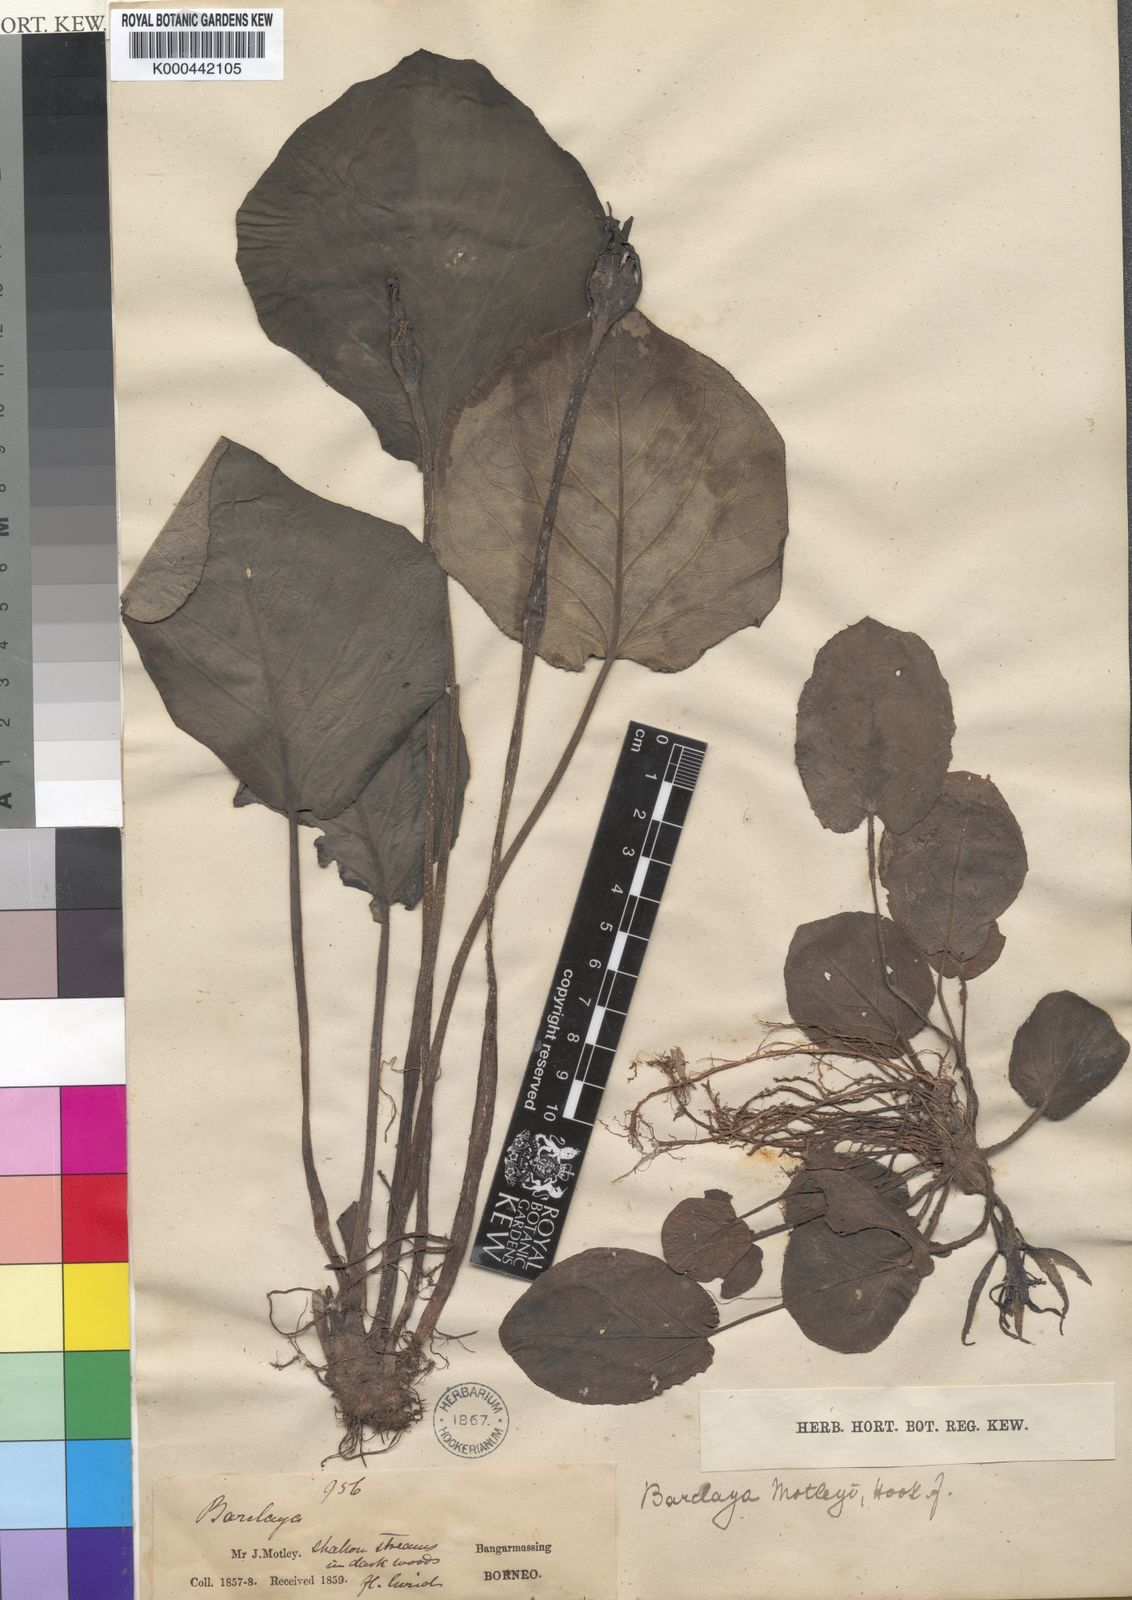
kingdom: Plantae
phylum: Tracheophyta
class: Magnoliopsida
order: Nymphaeales
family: Nymphaeaceae
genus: Barclaya
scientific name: Barclaya motleyi
